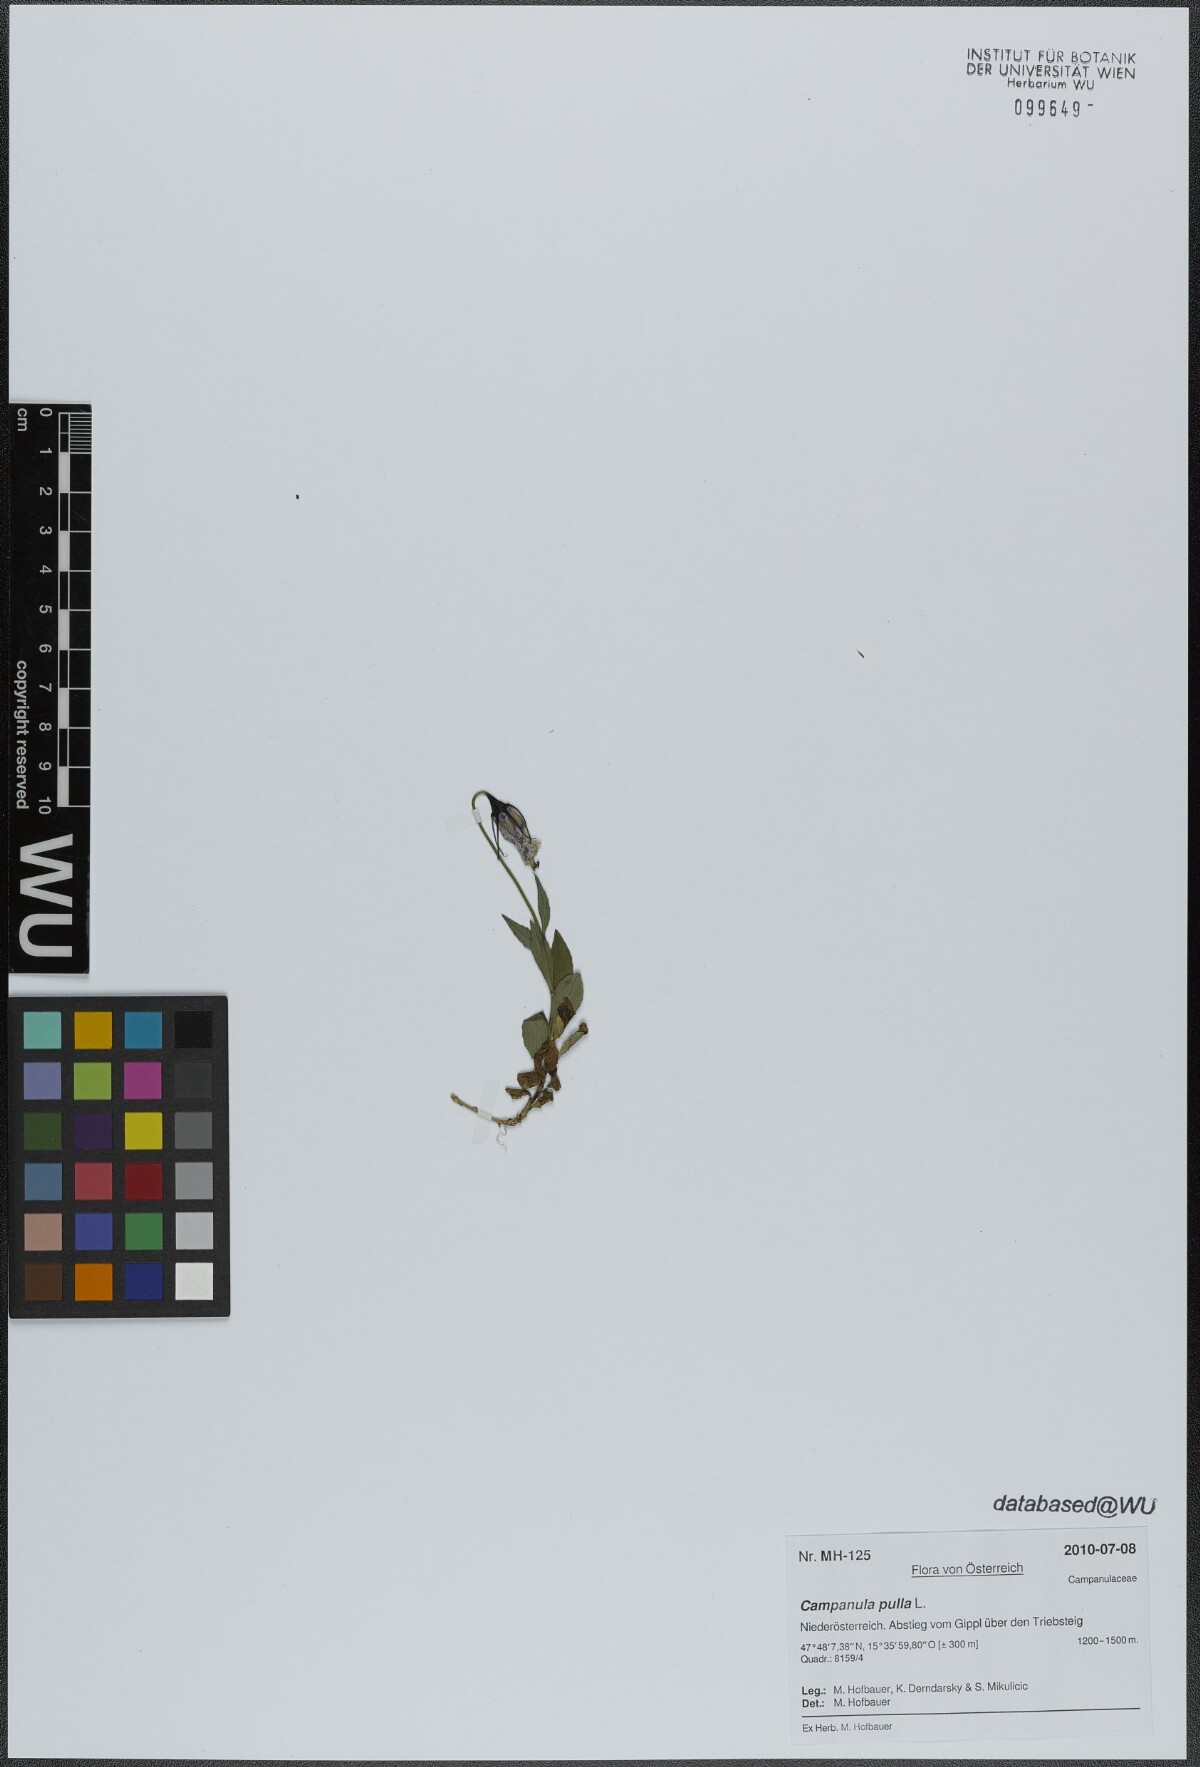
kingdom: Plantae
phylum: Tracheophyta
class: Magnoliopsida
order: Asterales
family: Campanulaceae
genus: Campanula
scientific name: Campanula pulla
